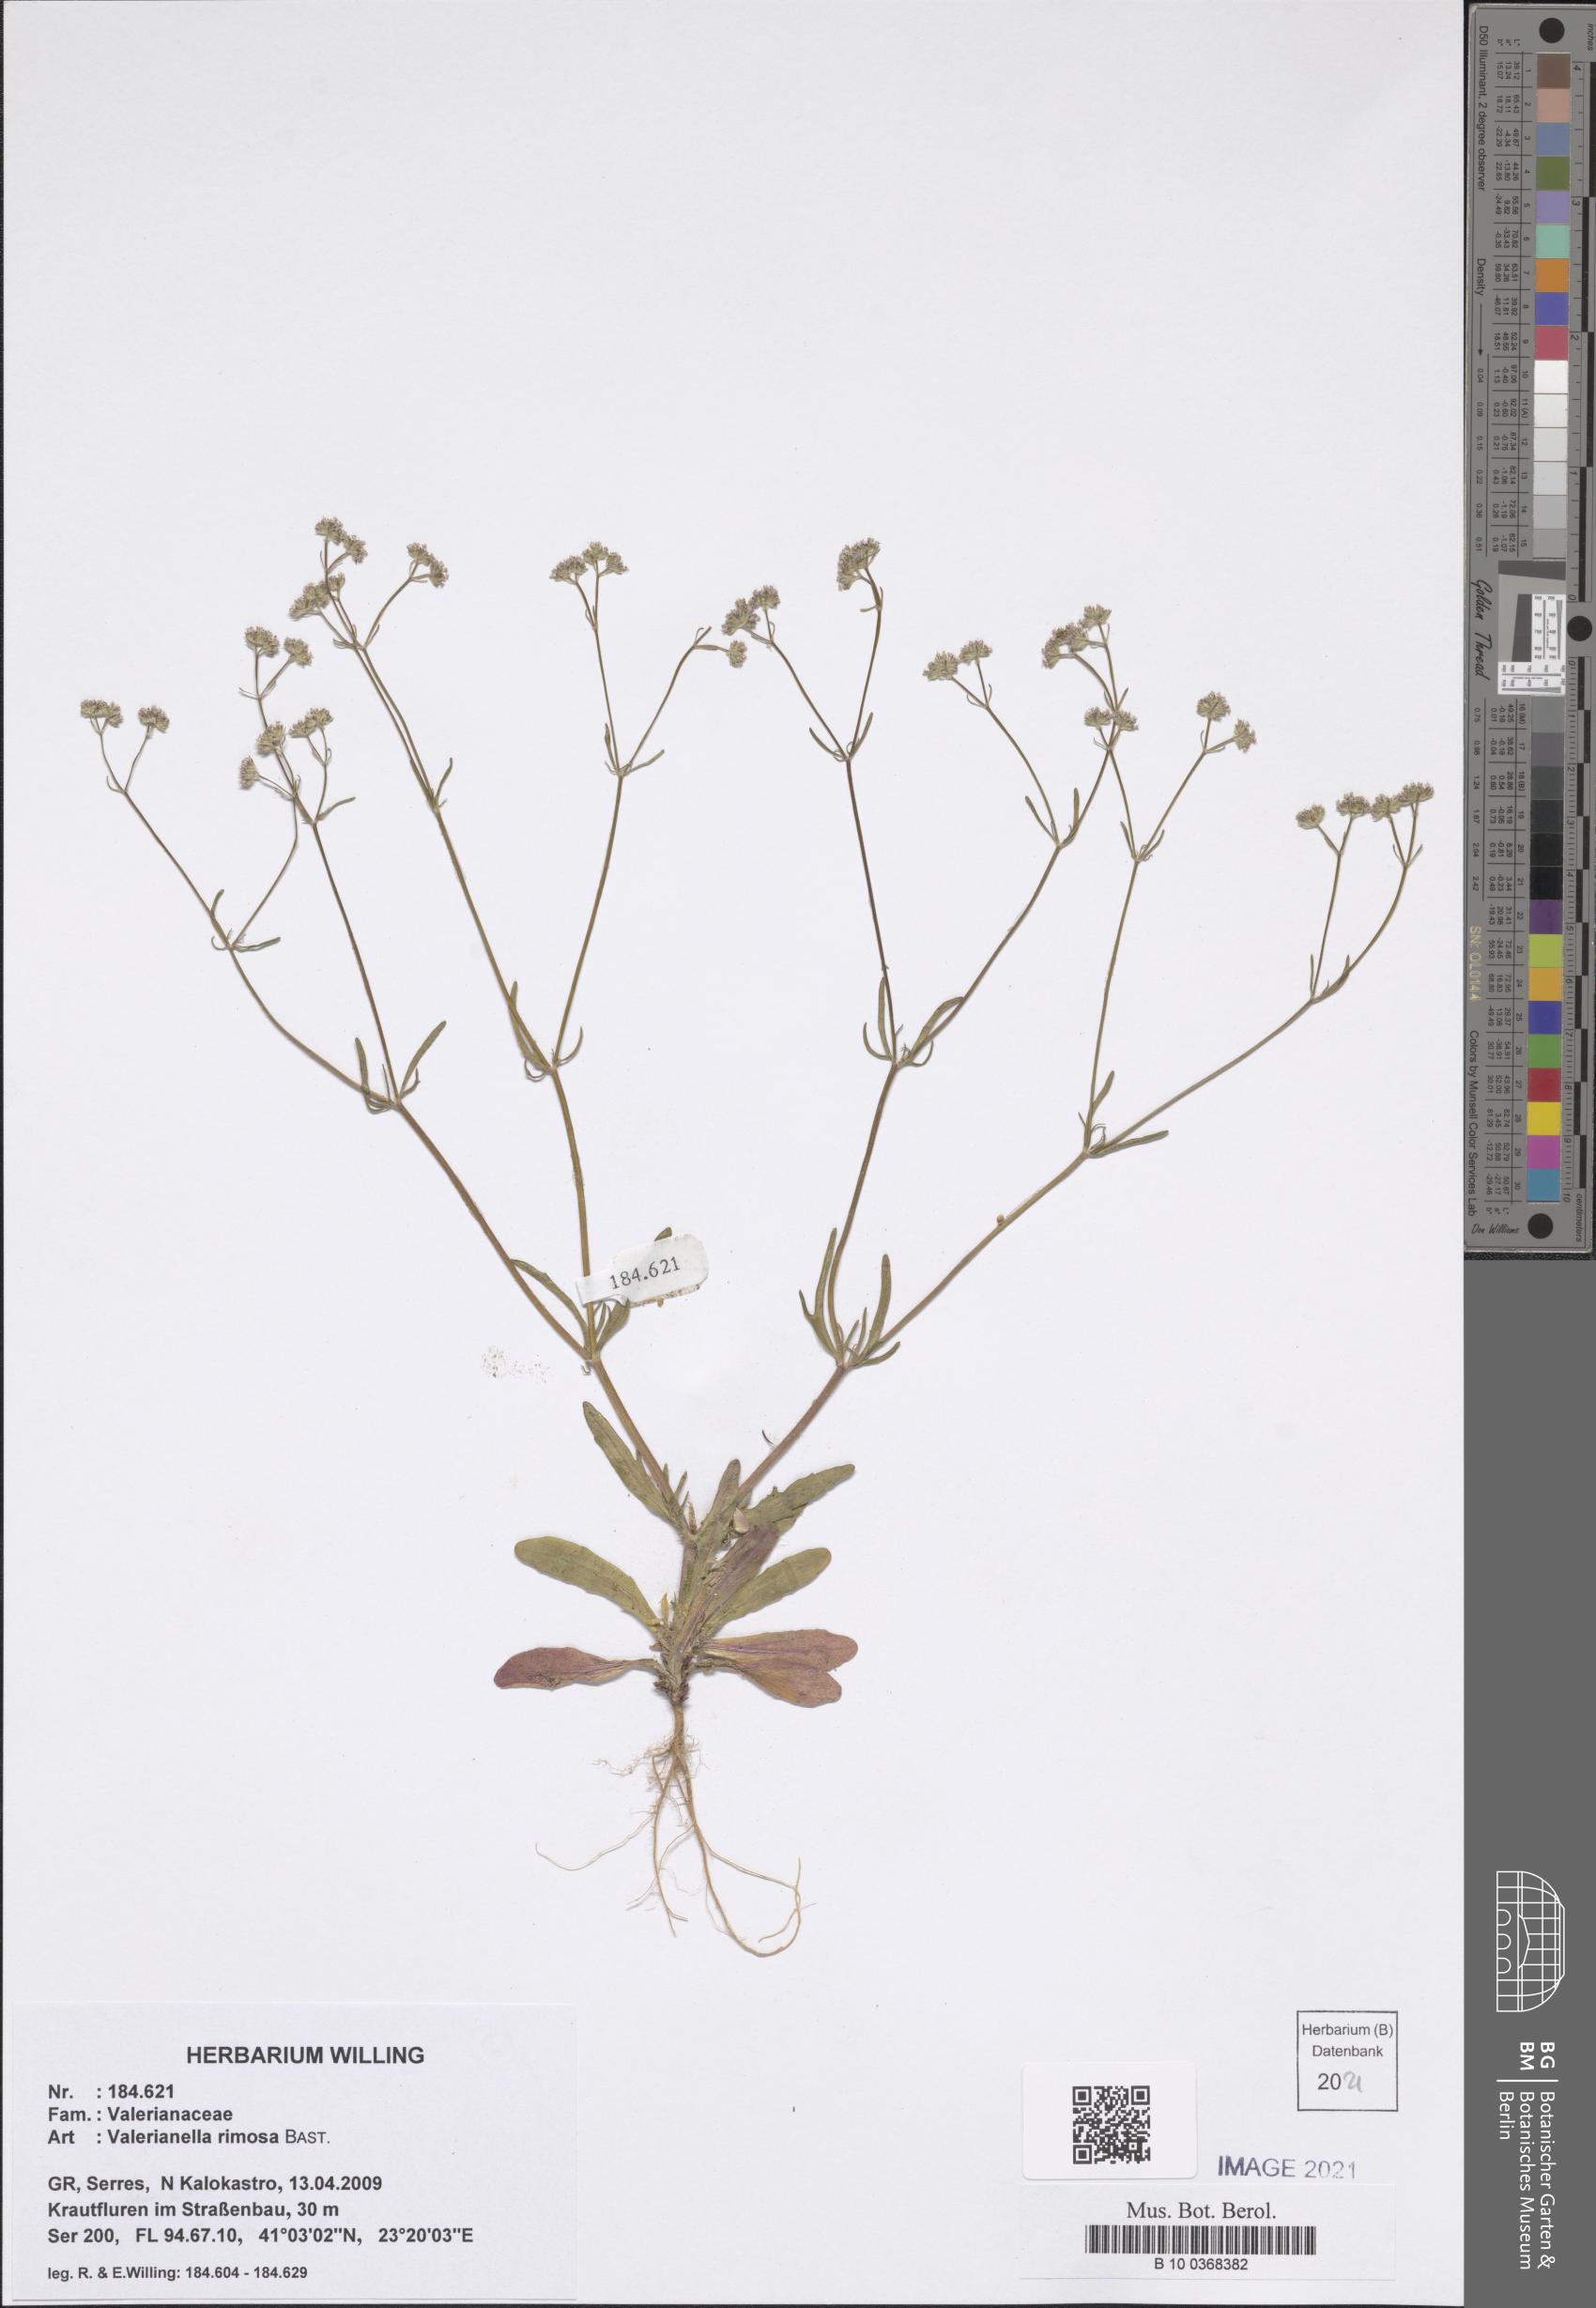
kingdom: Plantae
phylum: Tracheophyta
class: Magnoliopsida
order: Dipsacales
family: Caprifoliaceae
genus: Valerianella
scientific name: Valerianella rimosa
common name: Broad-fruited cornsalad
